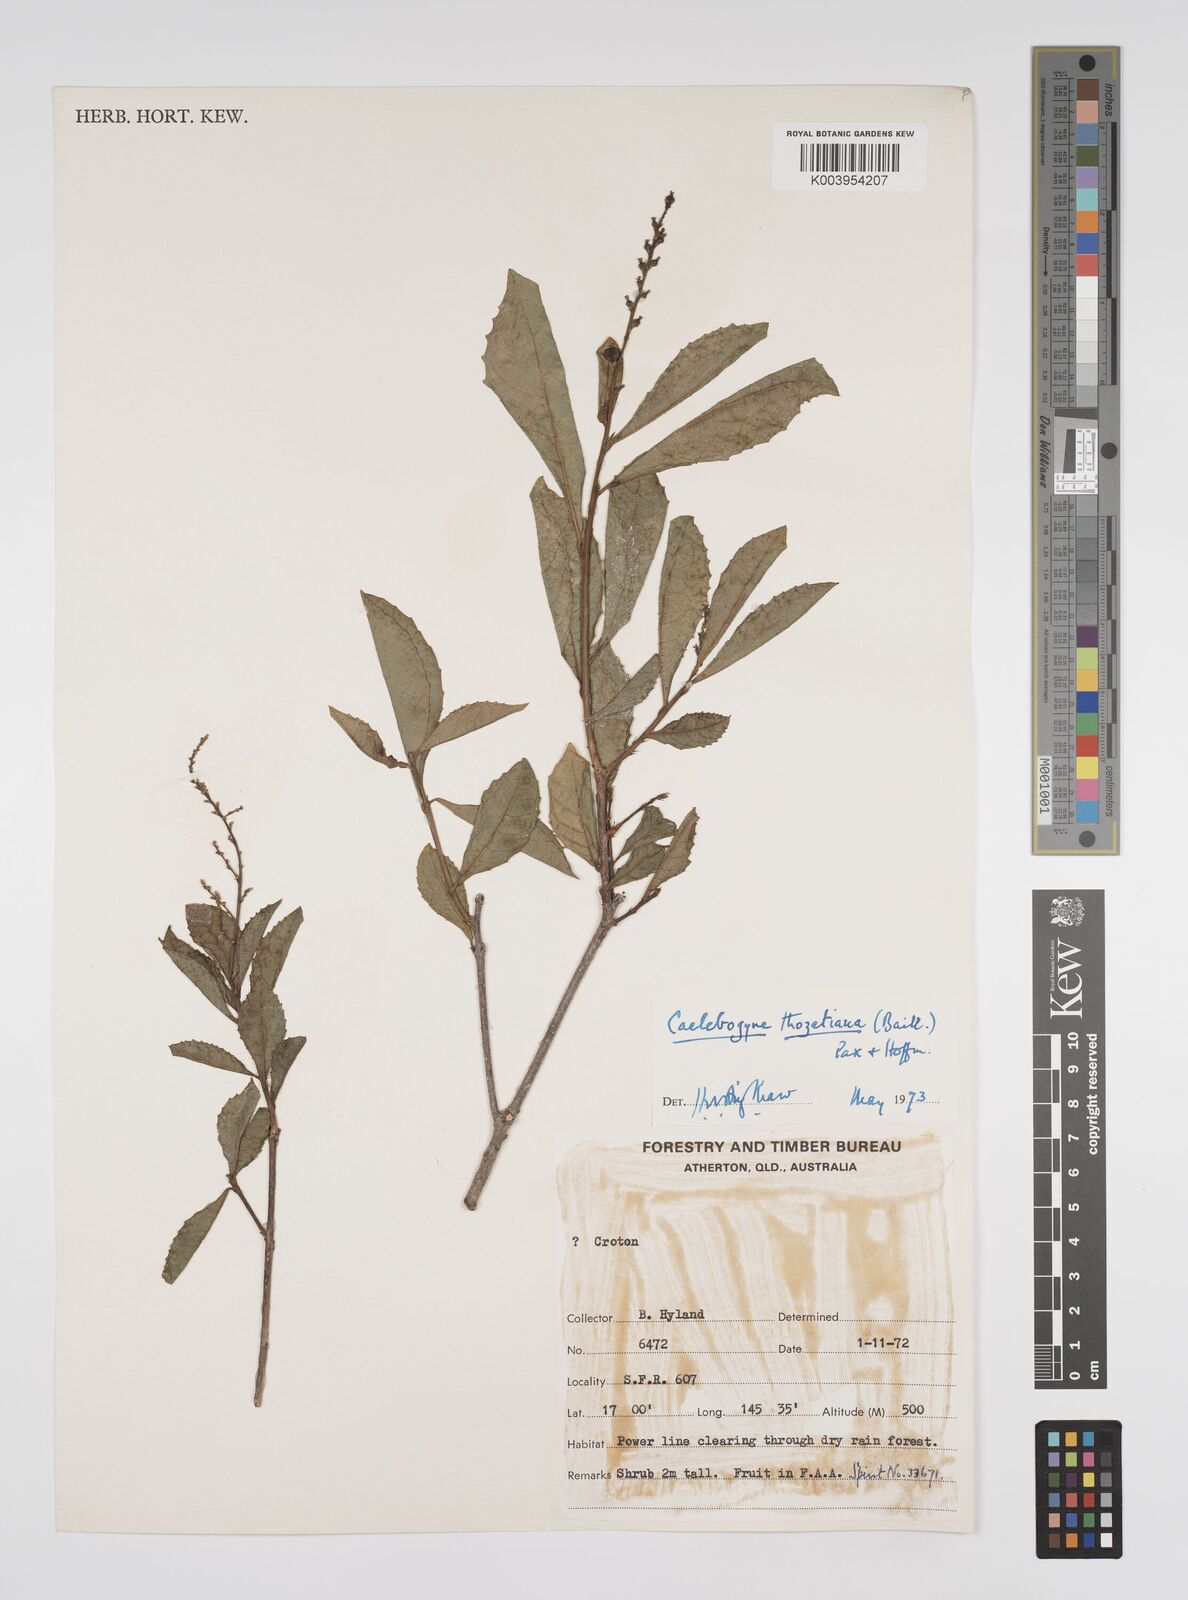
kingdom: Plantae
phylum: Tracheophyta
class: Magnoliopsida
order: Malpighiales
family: Euphorbiaceae
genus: Alchornea
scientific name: Alchornea ilicifolia
